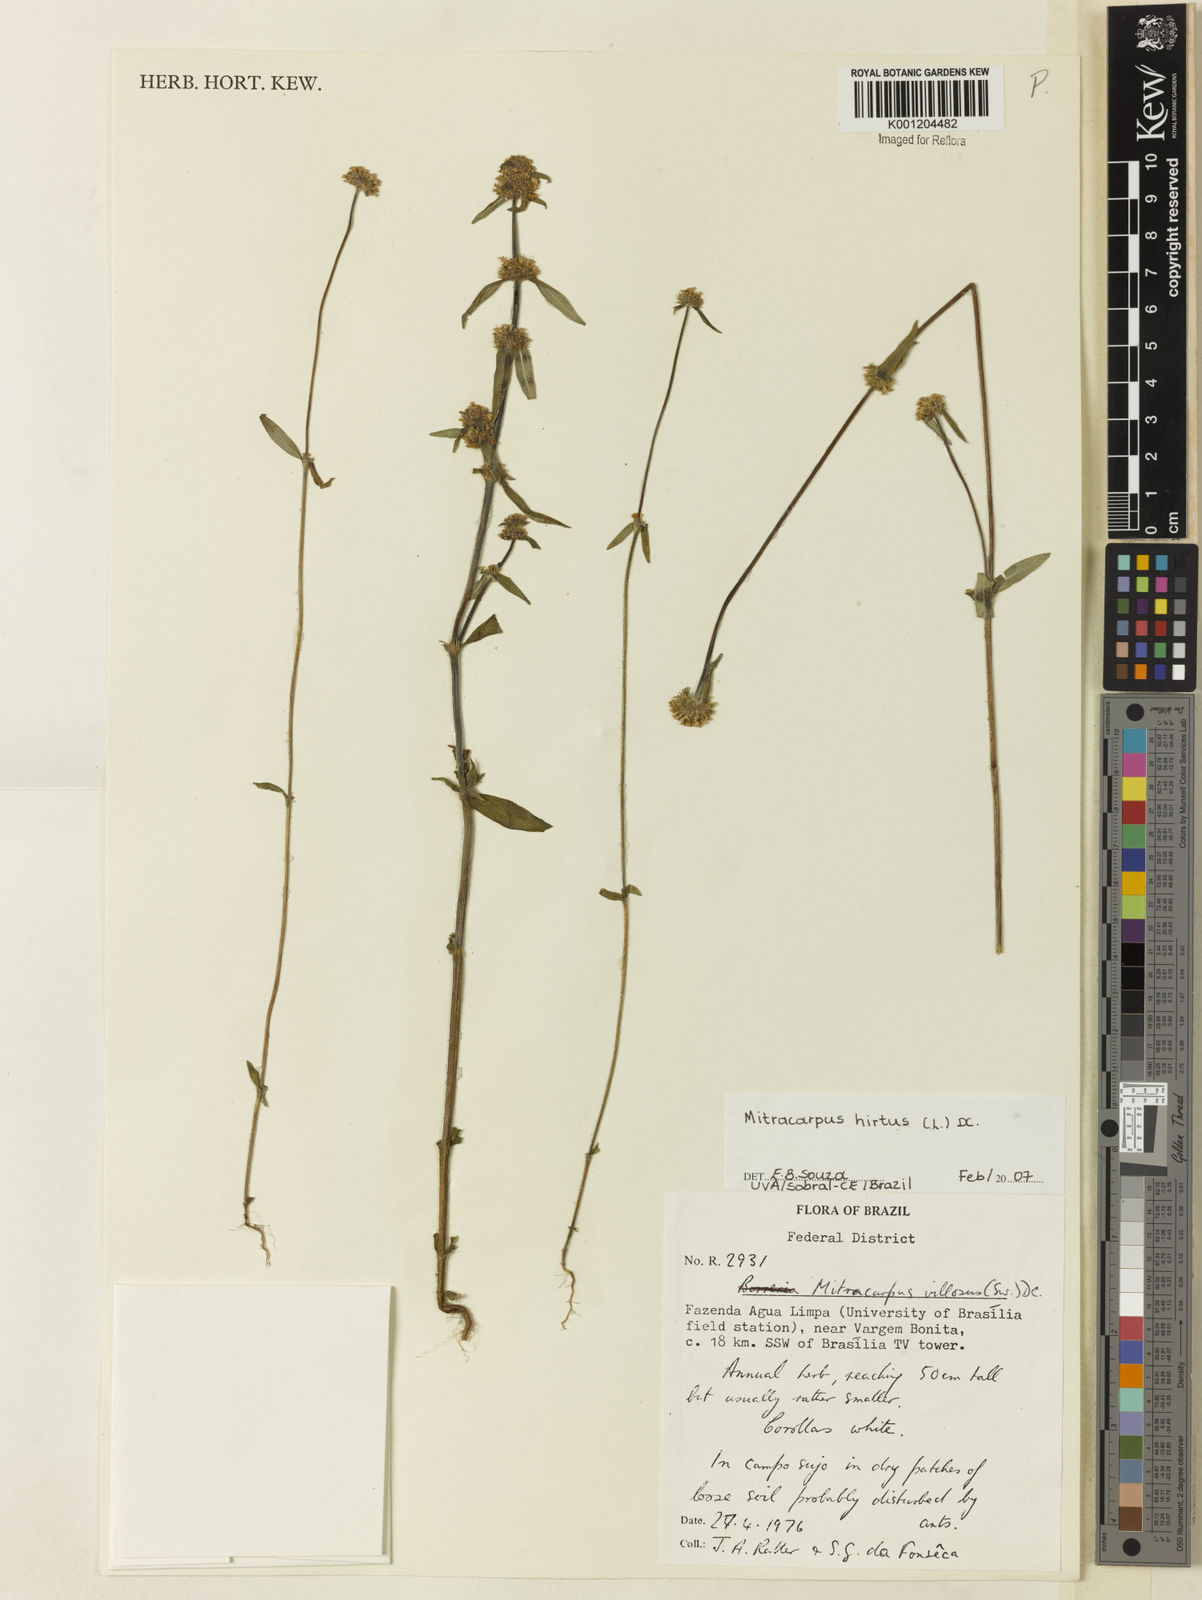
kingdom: Plantae
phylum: Tracheophyta
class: Magnoliopsida
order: Gentianales
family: Rubiaceae
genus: Mitracarpus
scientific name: Mitracarpus hirtus
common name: Tropical girdlepod
